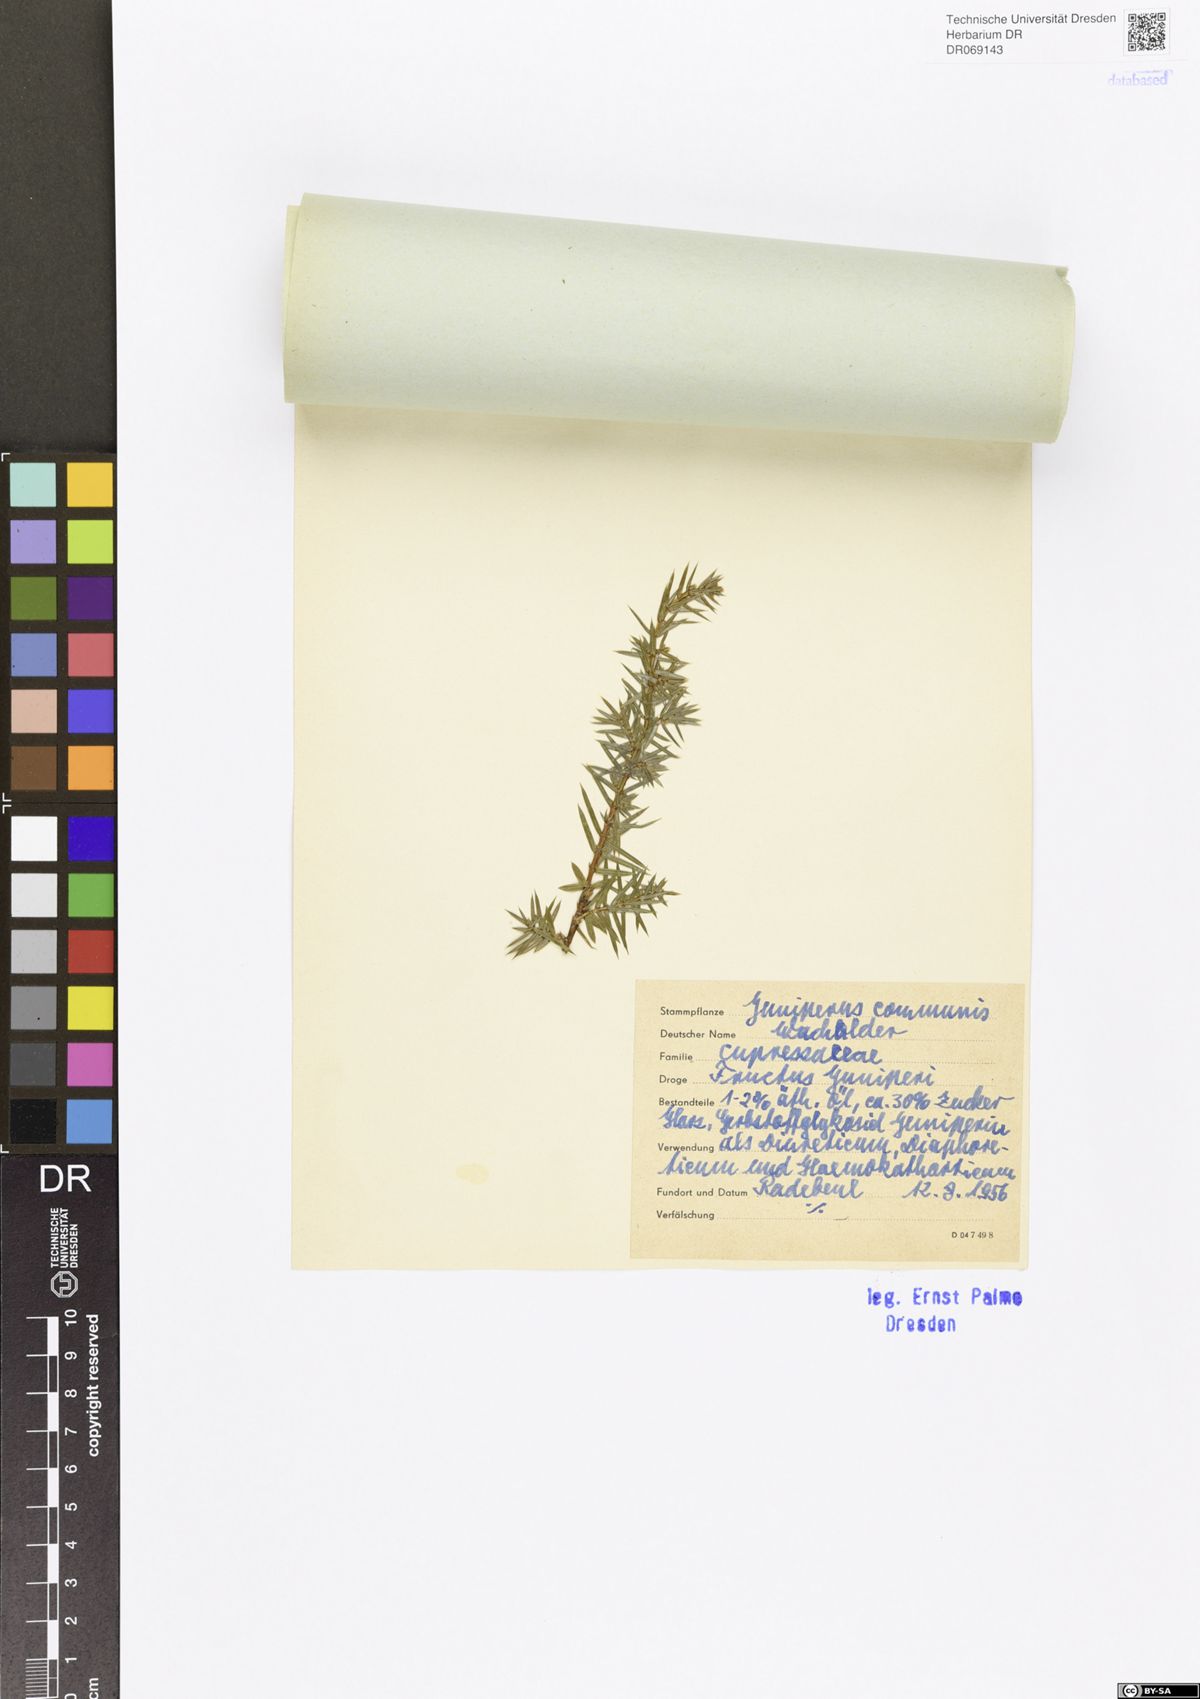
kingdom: Plantae
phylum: Tracheophyta
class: Pinopsida
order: Pinales
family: Cupressaceae
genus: Juniperus
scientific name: Juniperus communis
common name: Common juniper
